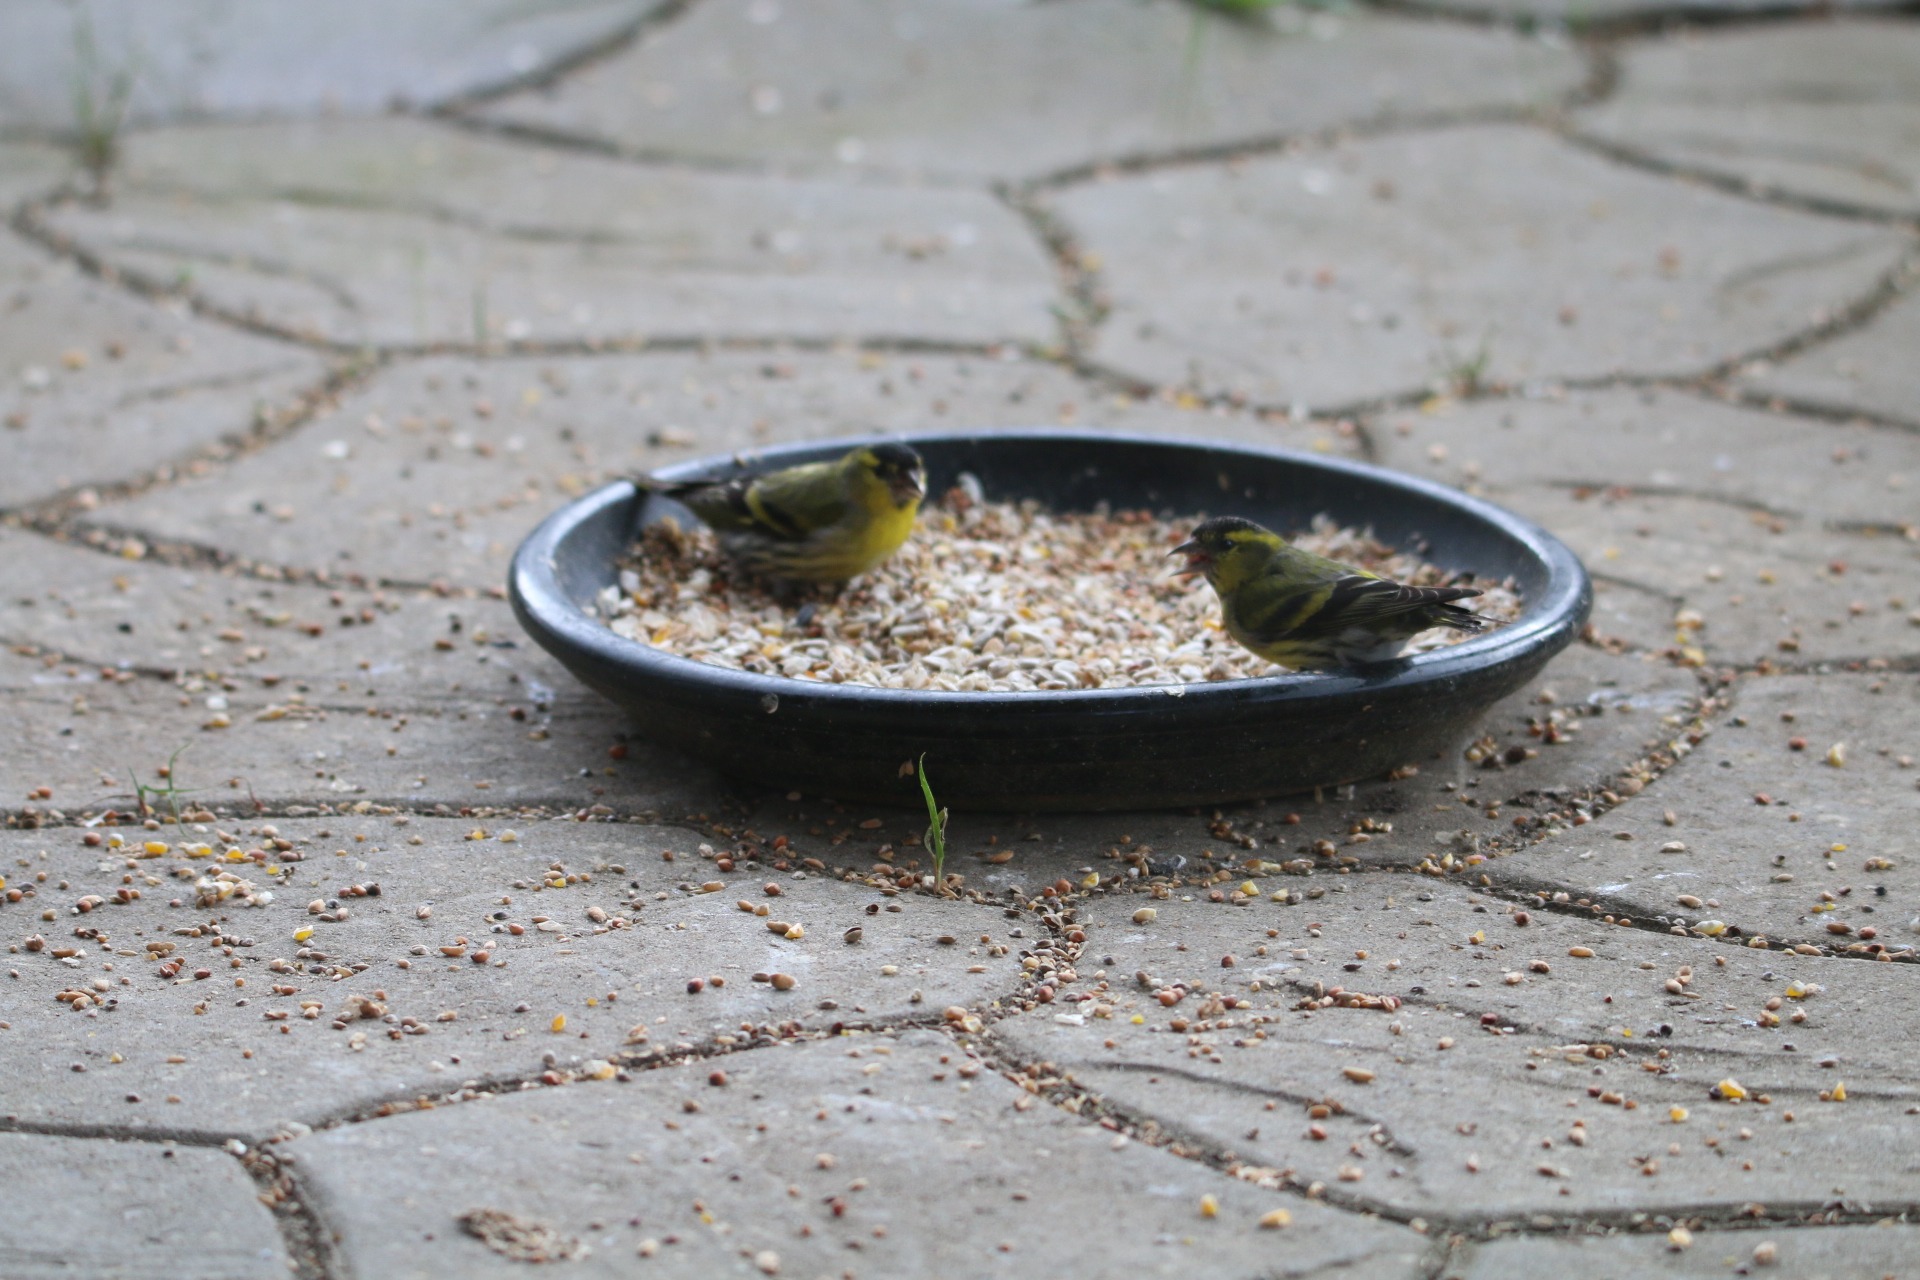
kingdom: Animalia
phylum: Chordata
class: Aves
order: Passeriformes
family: Fringillidae
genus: Spinus
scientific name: Spinus spinus
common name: Grønsisken
